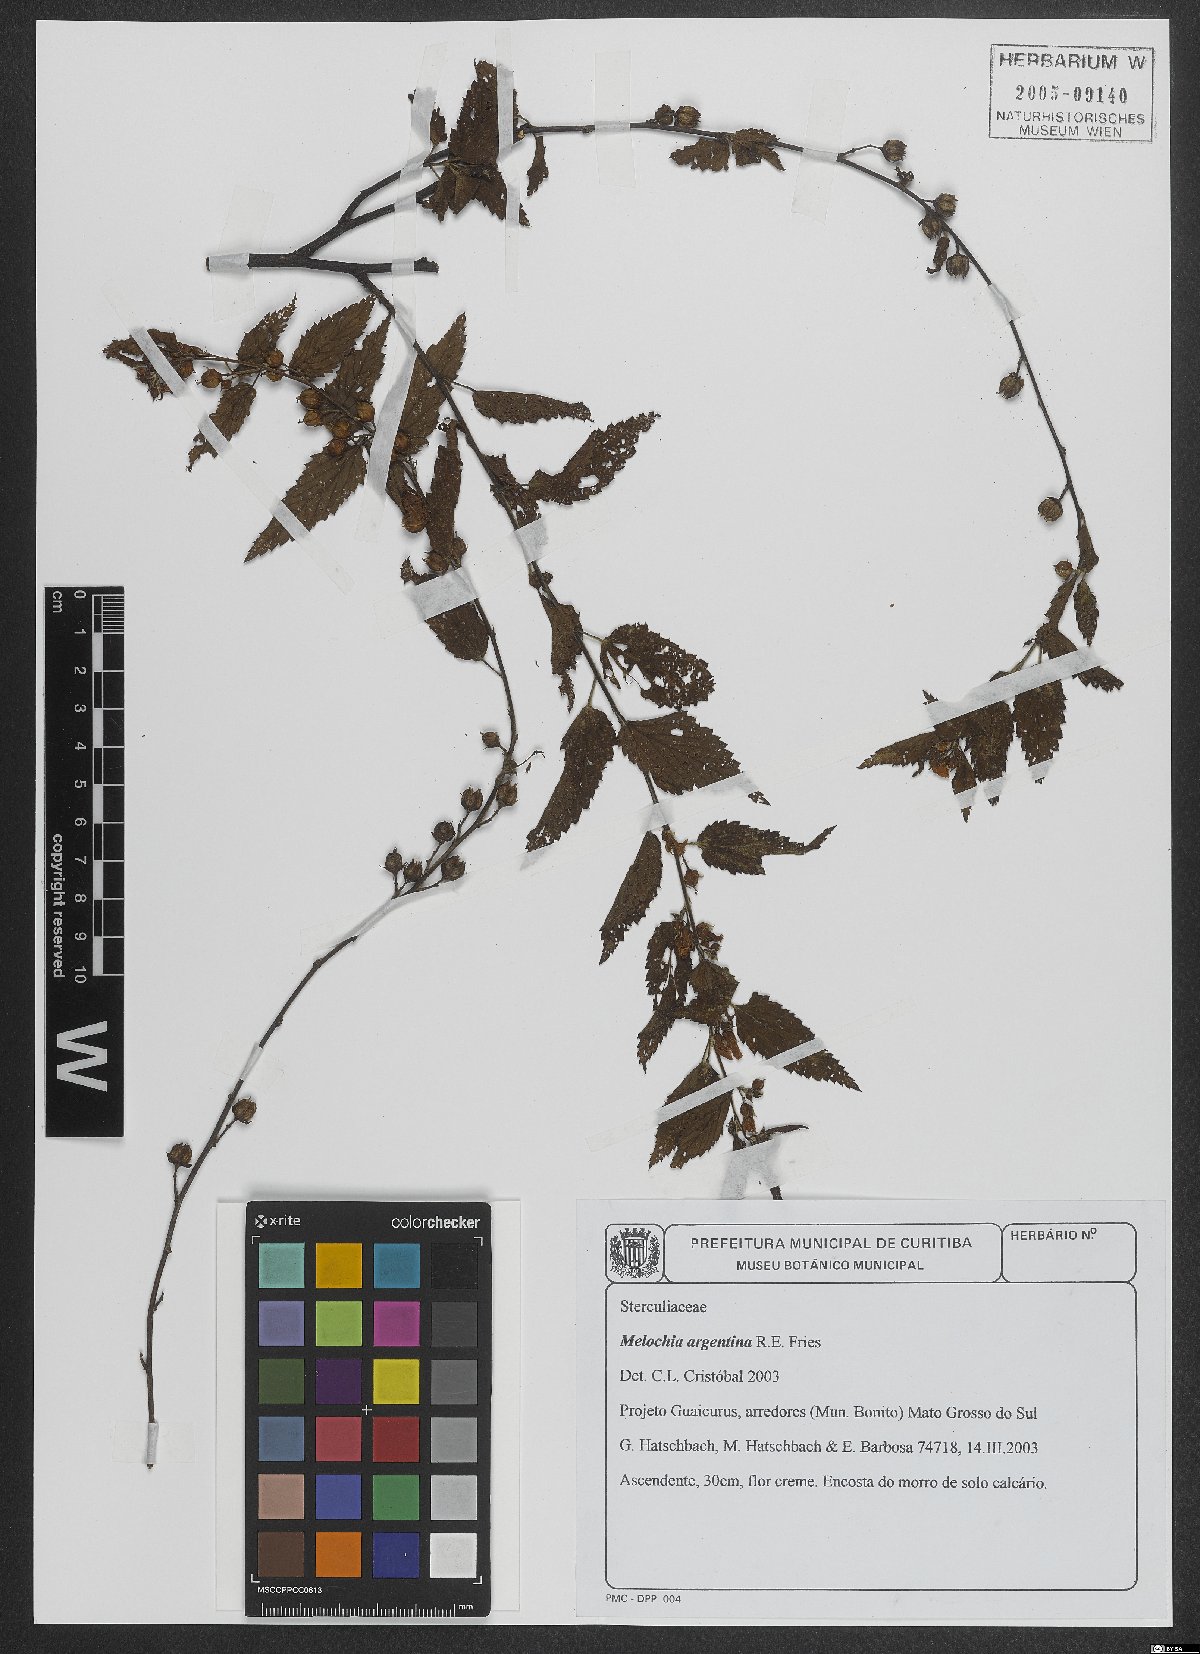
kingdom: Plantae
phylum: Tracheophyta
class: Magnoliopsida
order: Malvales
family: Malvaceae
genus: Melochia
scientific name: Melochia argentina
